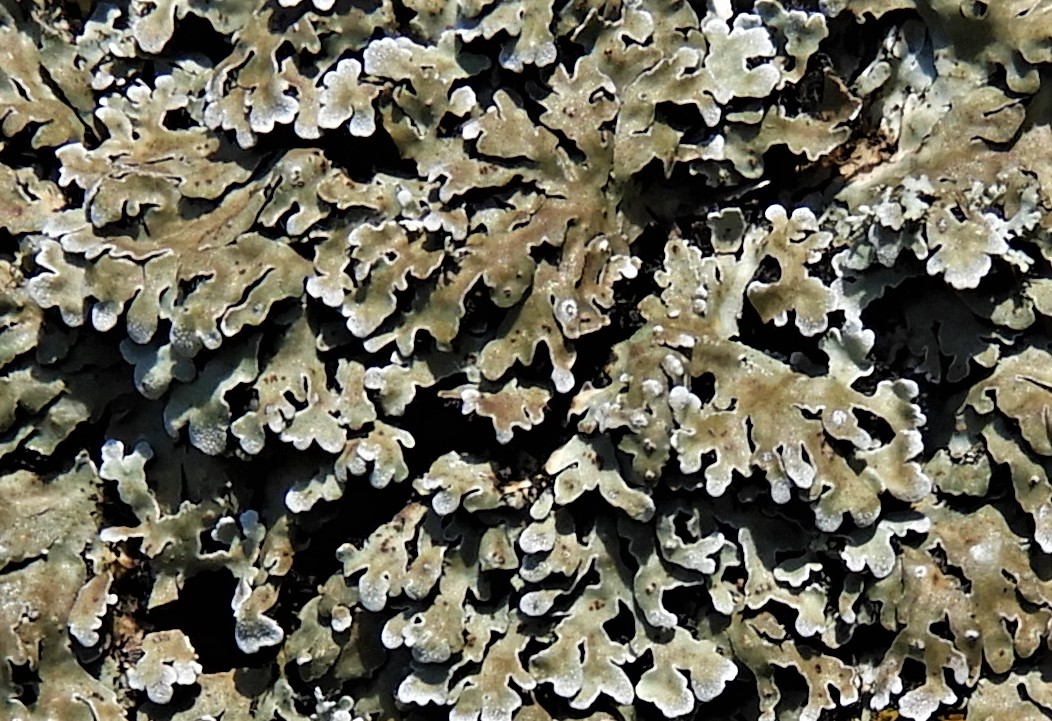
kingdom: Fungi
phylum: Ascomycota
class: Lecanoromycetes
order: Caliciales
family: Physciaceae
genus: Physconia
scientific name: Physconia distorta
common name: pudret dugrosetlav
